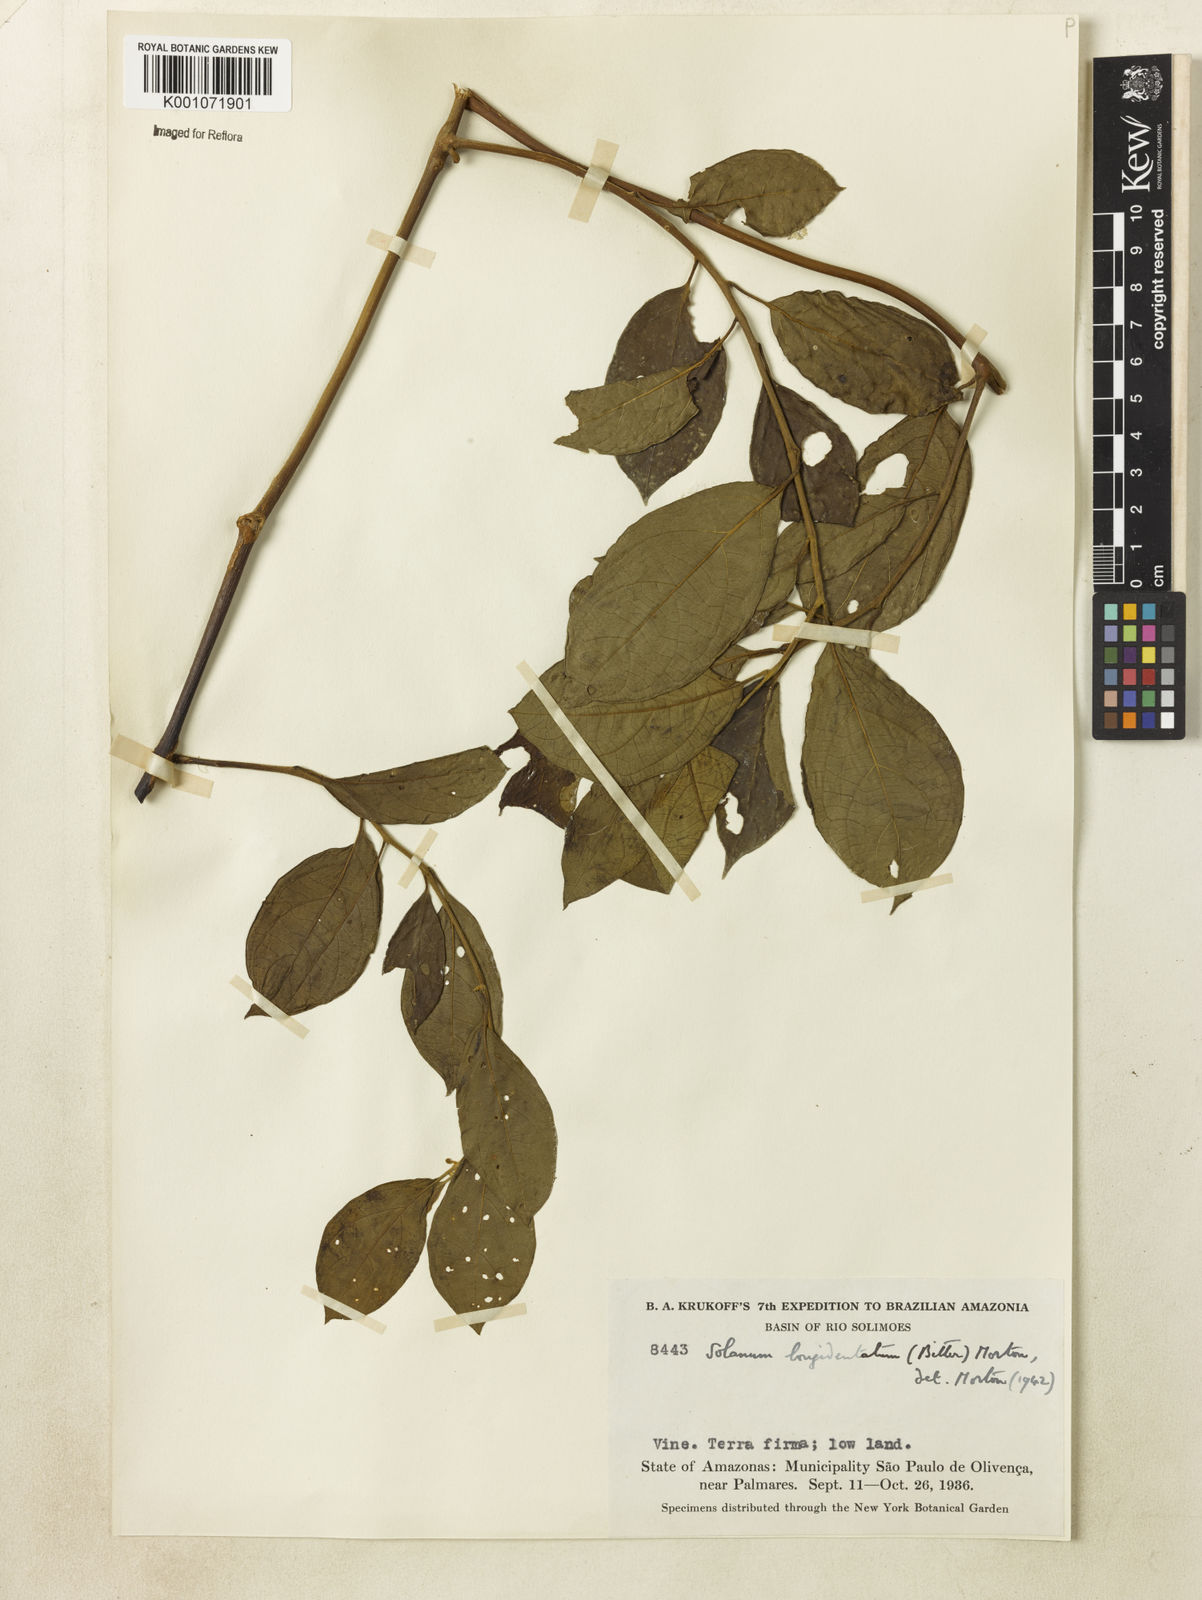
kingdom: Plantae
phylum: Tracheophyta
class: Magnoliopsida
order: Solanales
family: Solanaceae
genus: Lycianthes
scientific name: Lycianthes
